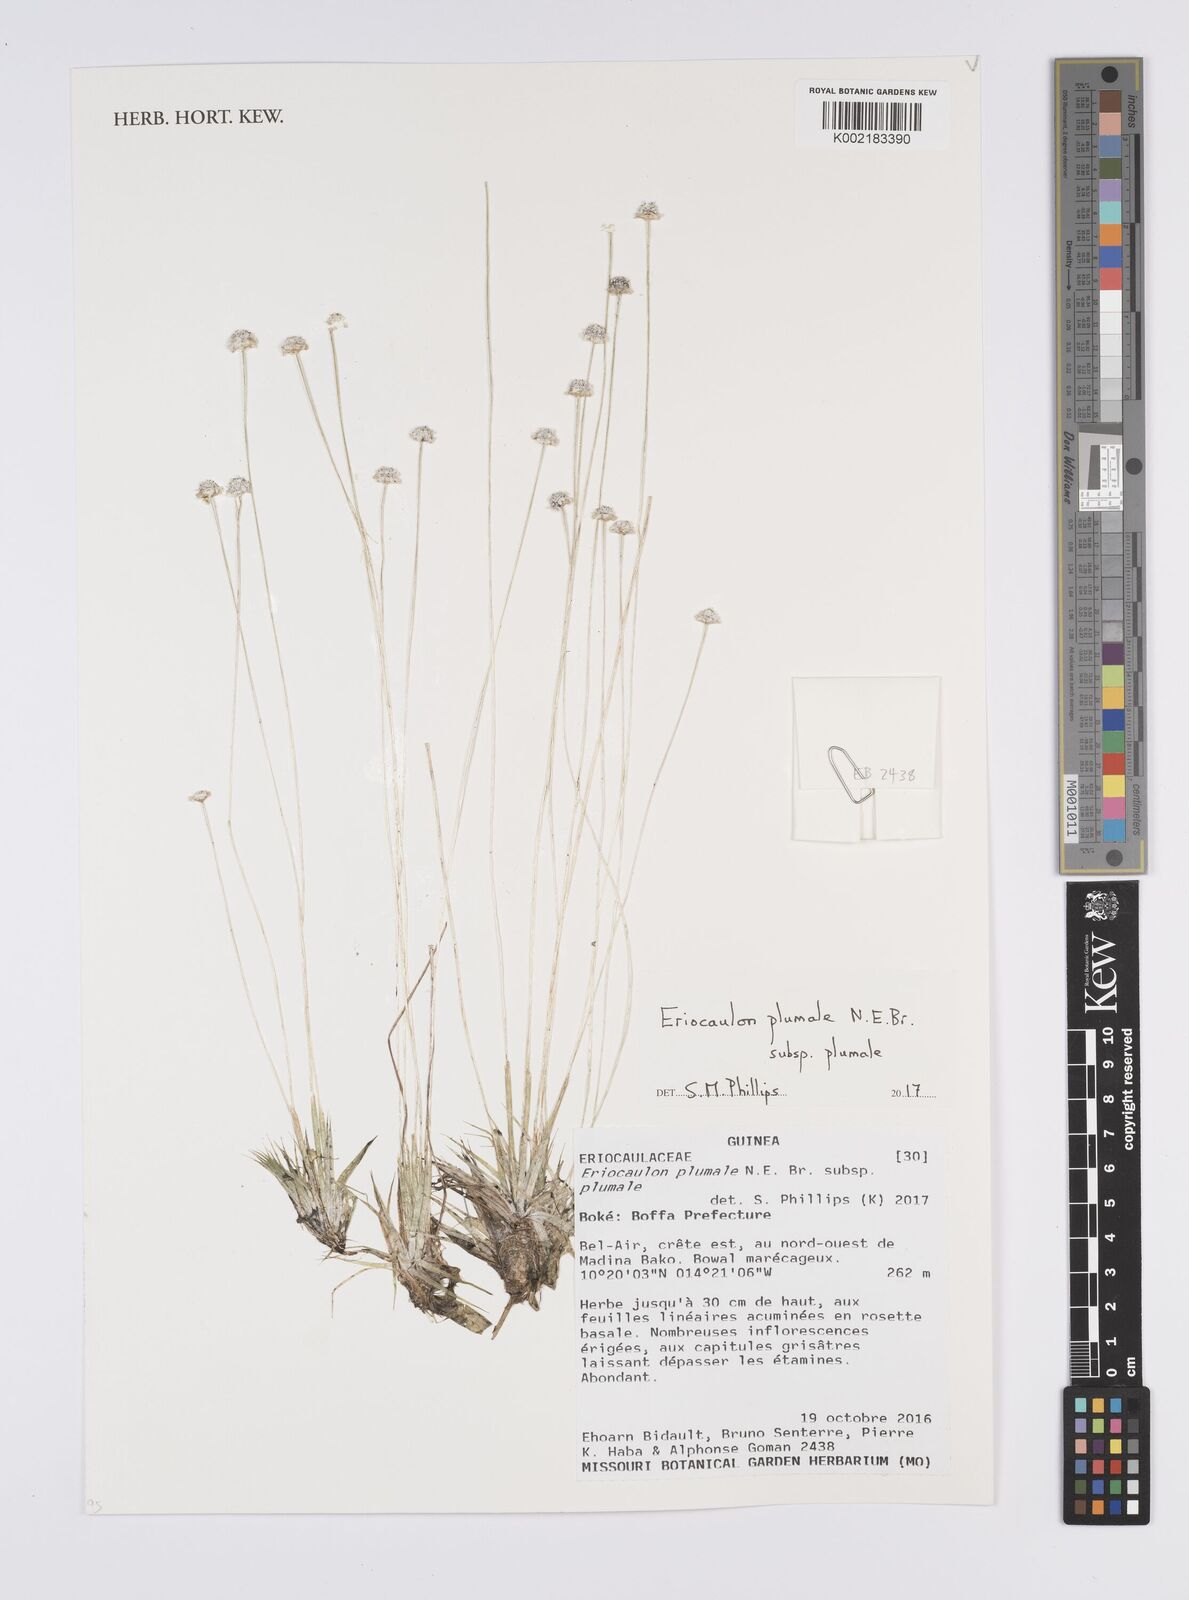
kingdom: Plantae
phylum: Tracheophyta
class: Liliopsida
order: Poales
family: Eriocaulaceae
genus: Eriocaulon
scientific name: Eriocaulon plumale
